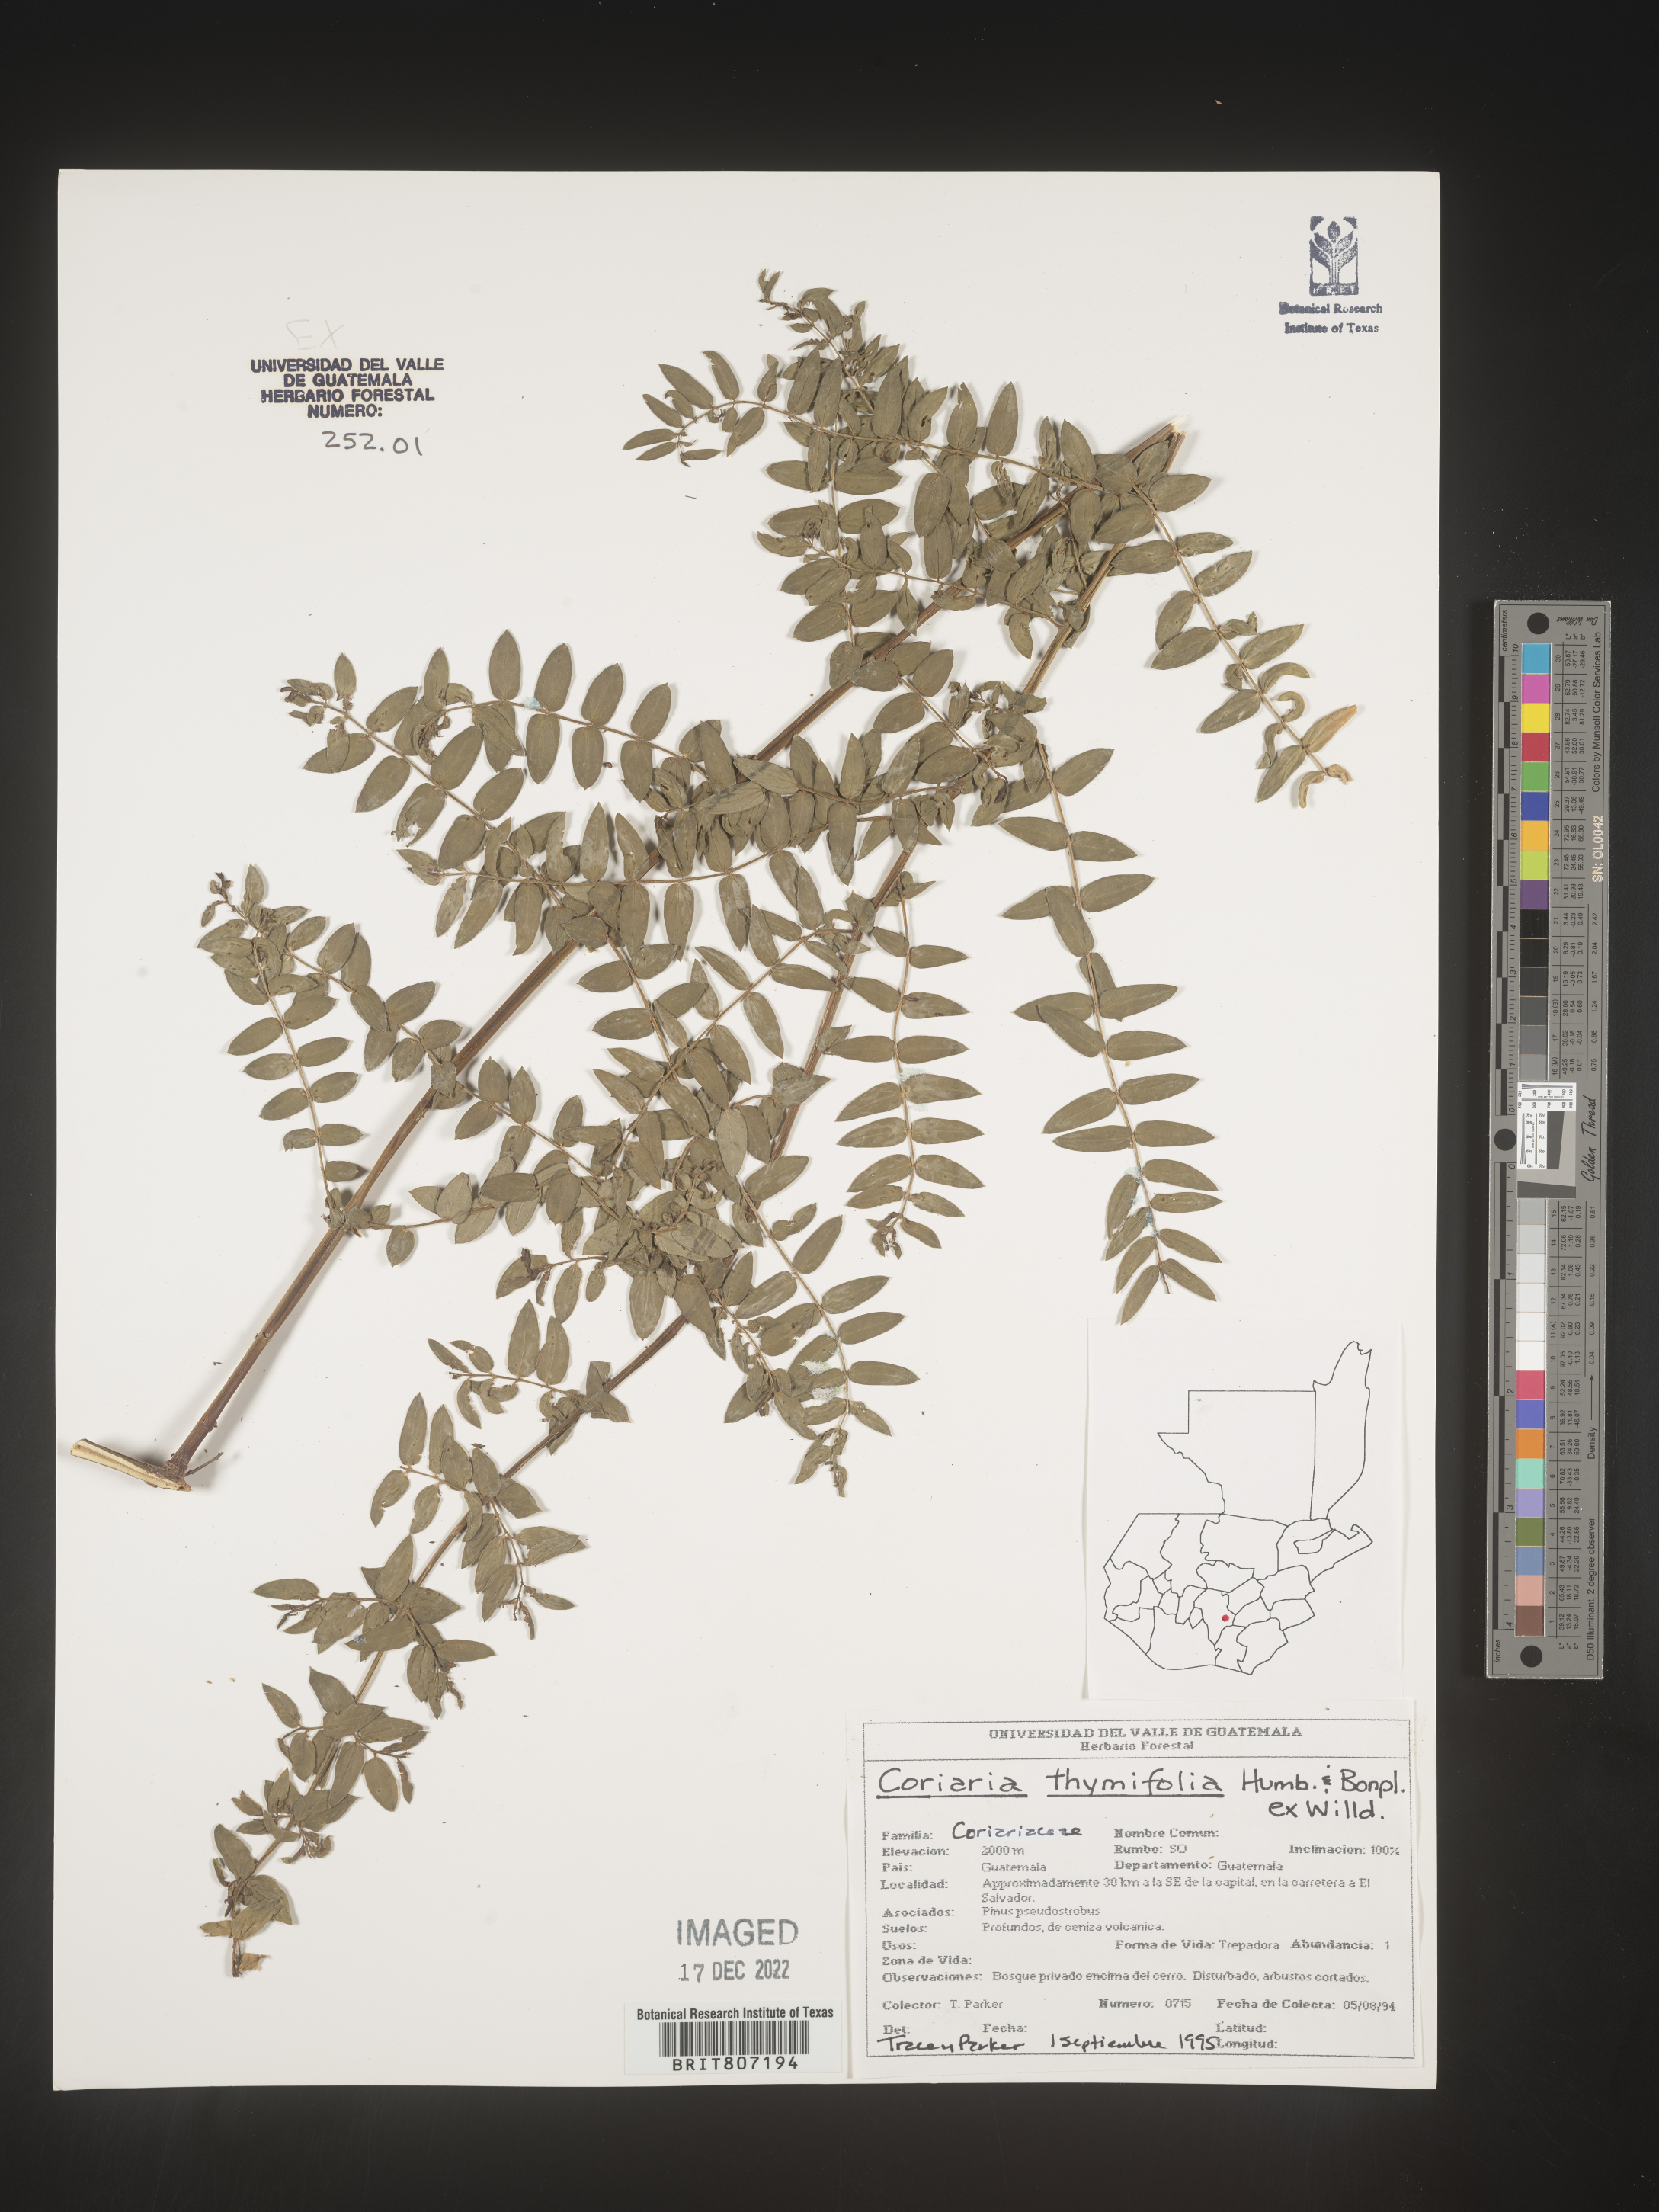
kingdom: Plantae
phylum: Tracheophyta
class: Magnoliopsida
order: Cucurbitales
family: Coriariaceae
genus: Coriaria
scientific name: Coriaria
